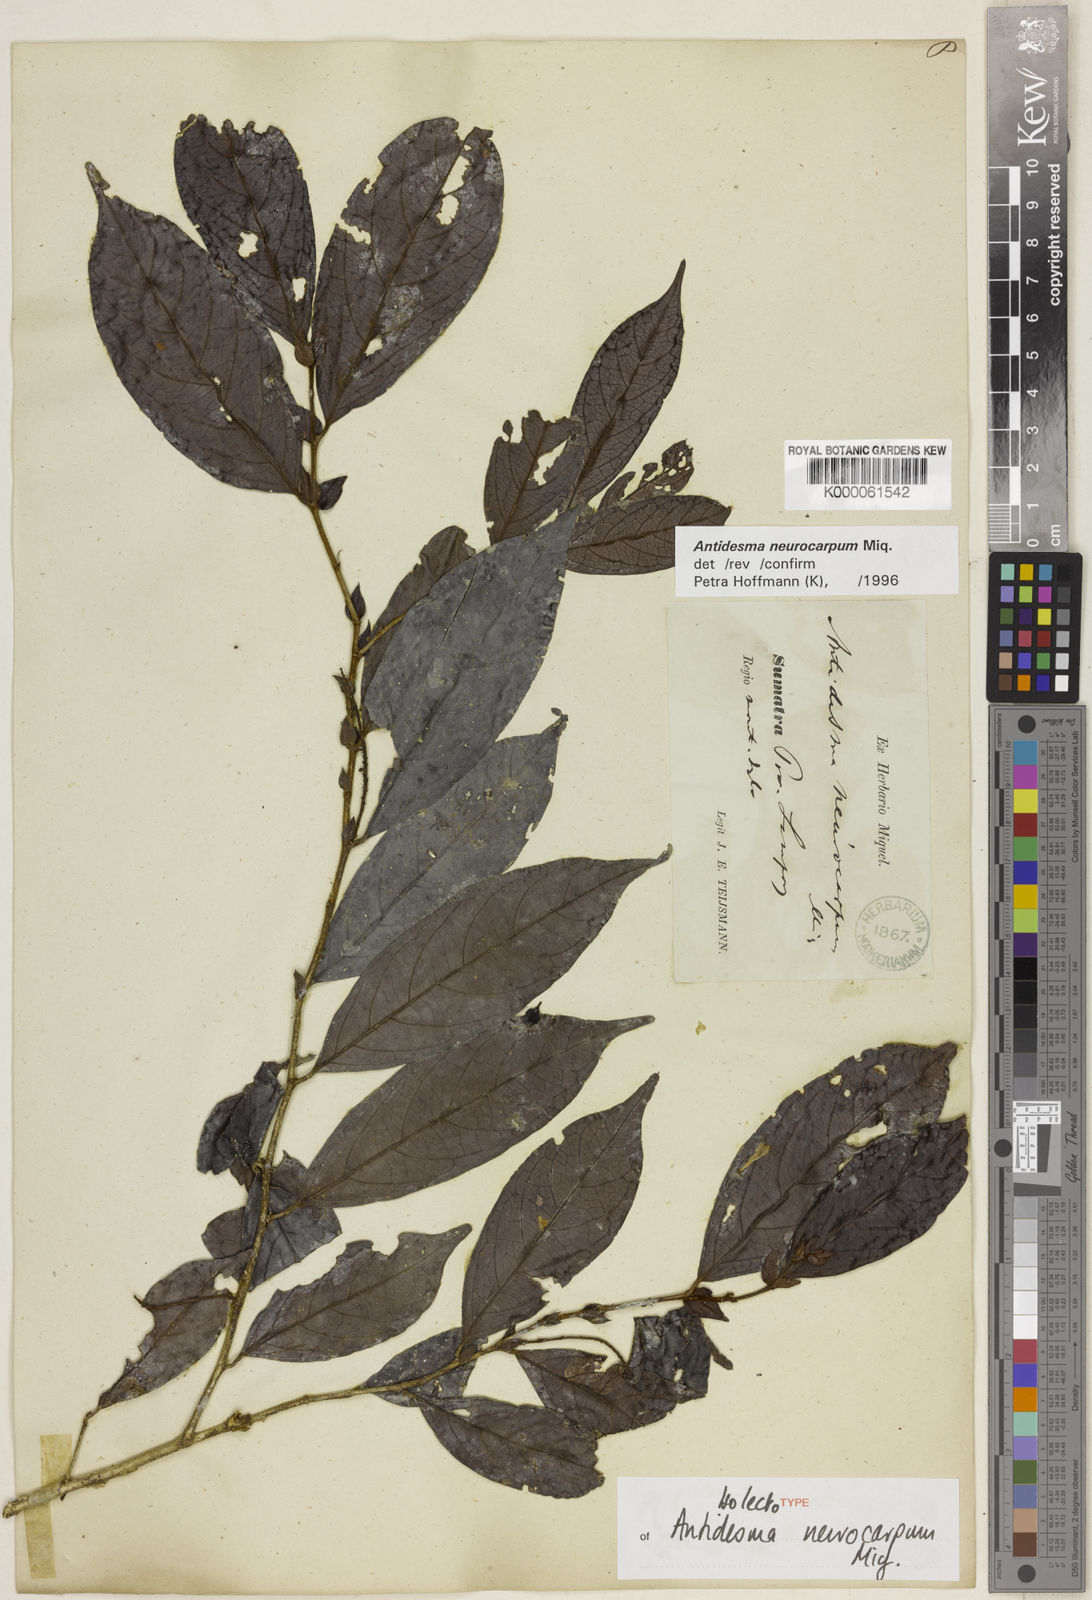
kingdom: Plantae
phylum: Tracheophyta
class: Magnoliopsida
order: Malpighiales
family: Phyllanthaceae
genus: Antidesma
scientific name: Antidesma neurocarpum
